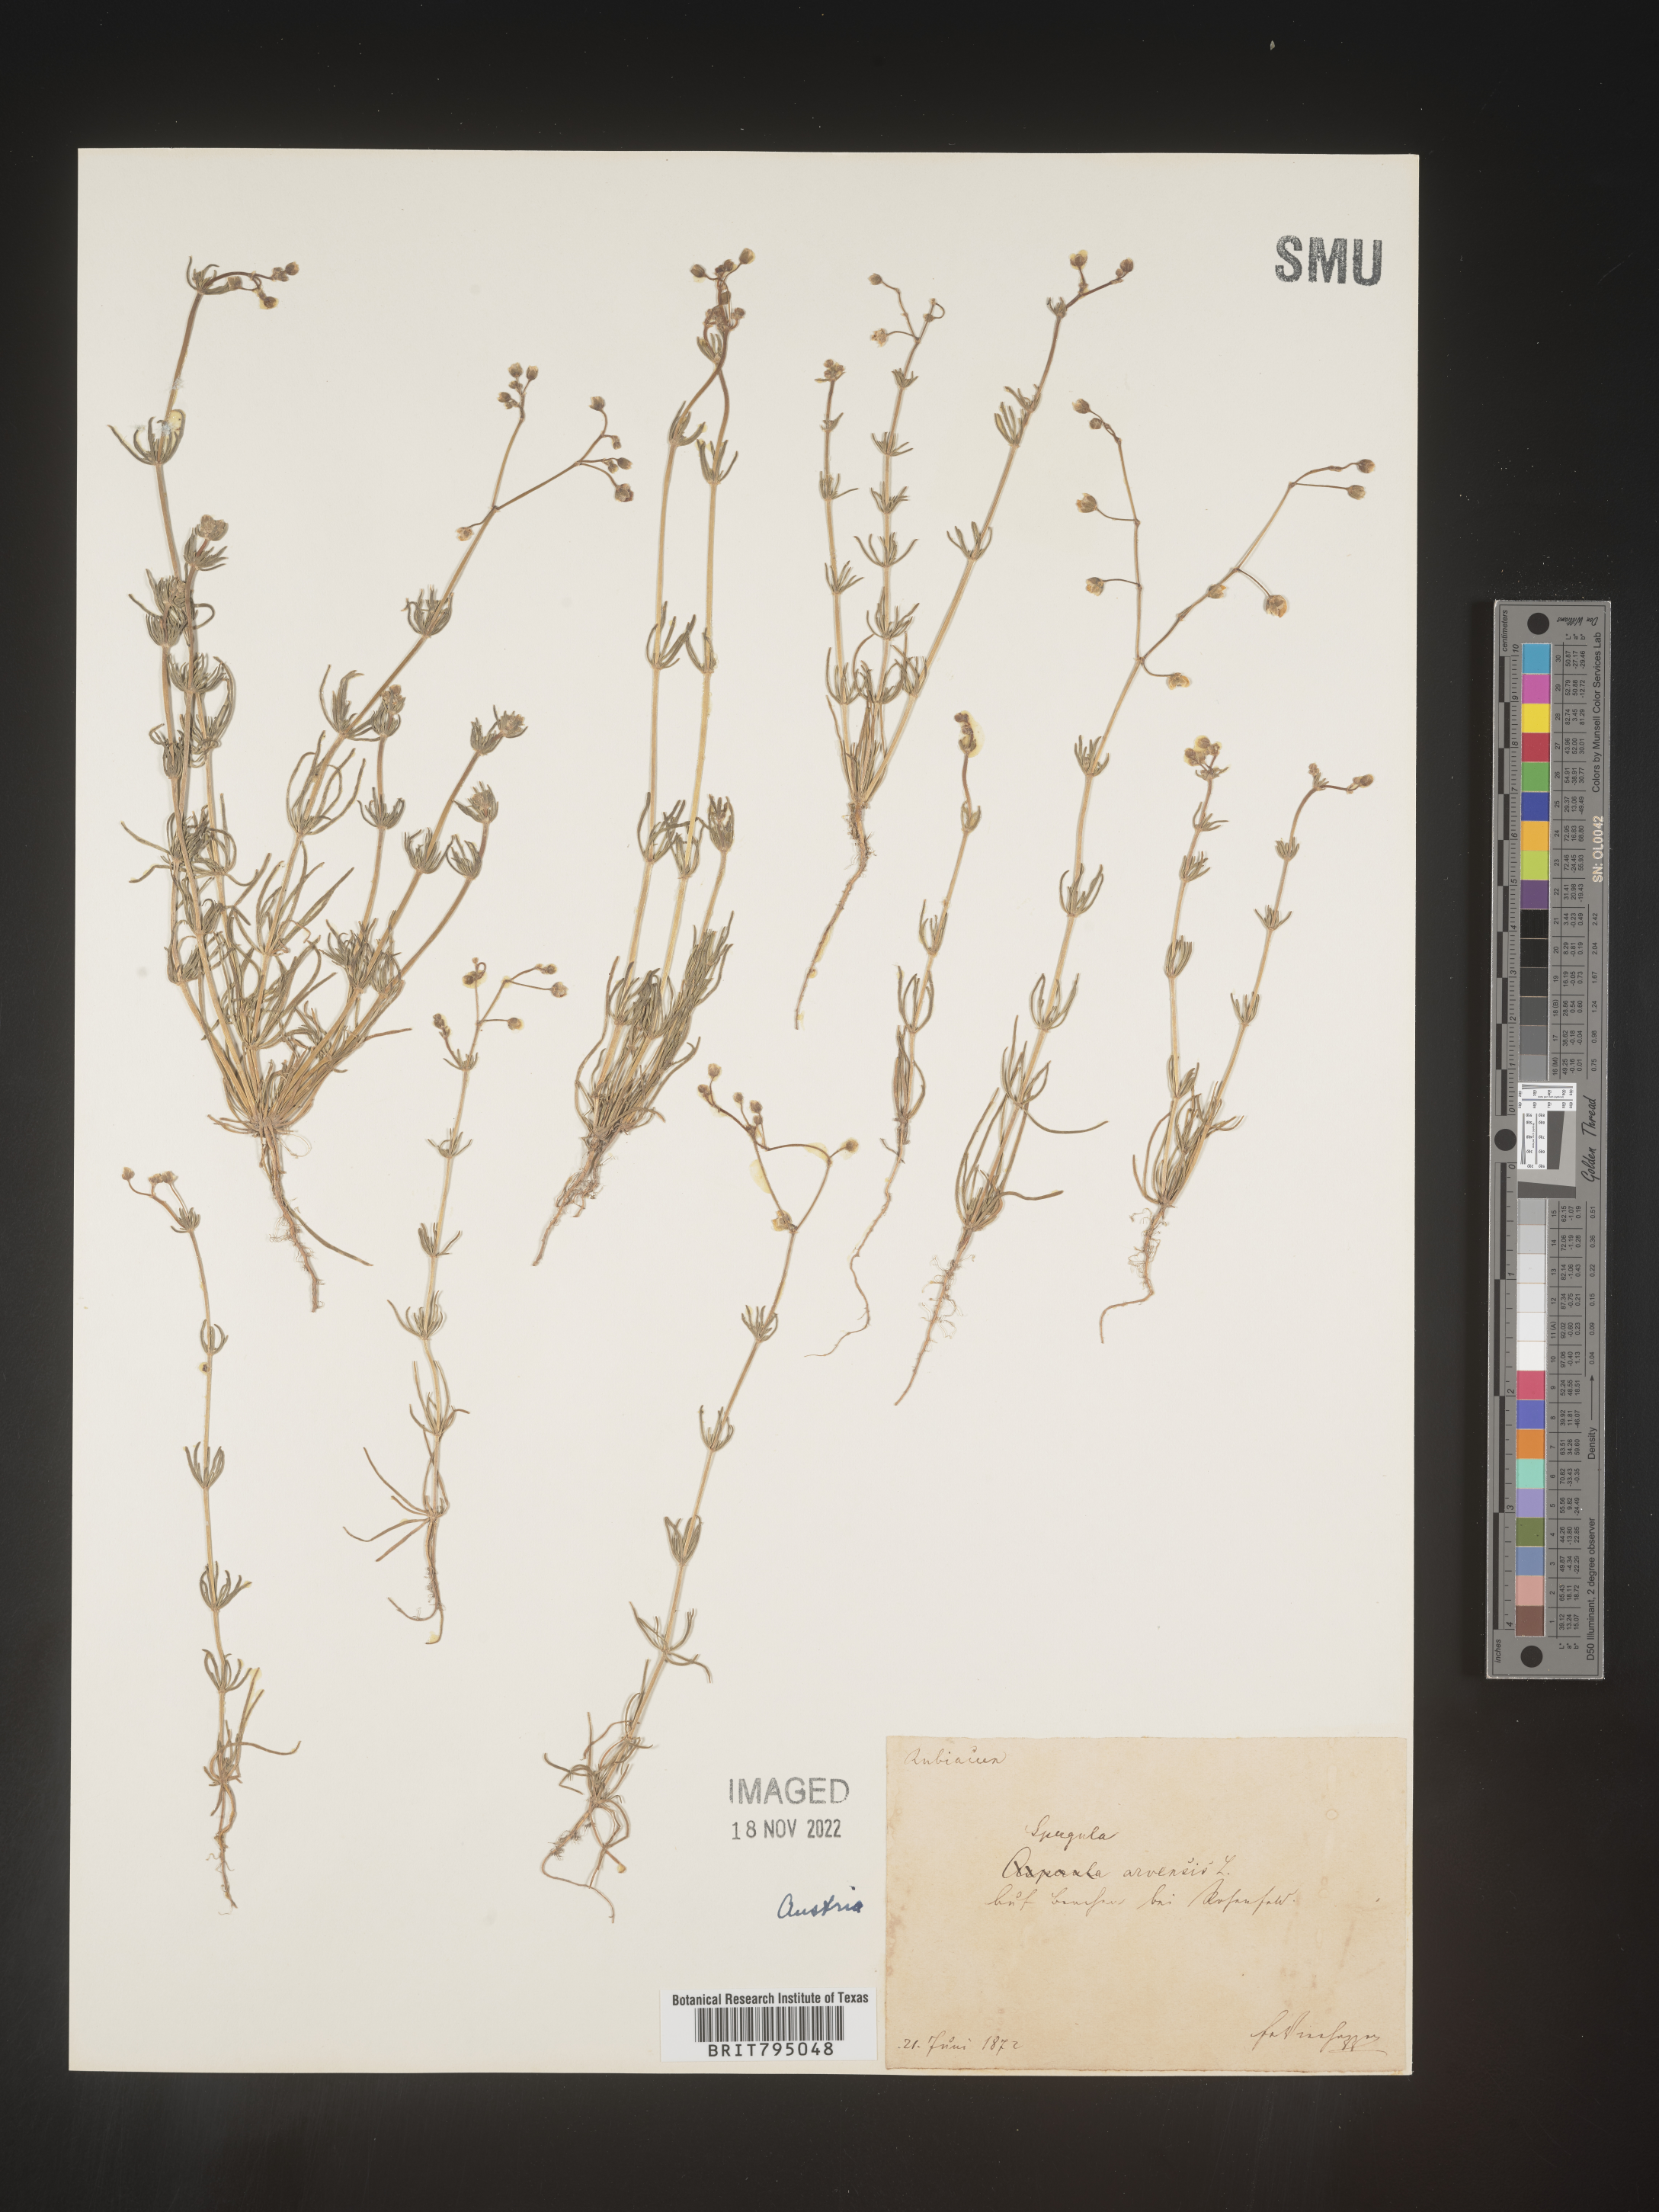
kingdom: Plantae
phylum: Tracheophyta
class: Magnoliopsida
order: Caryophyllales
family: Caryophyllaceae
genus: Spergula
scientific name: Spergula arvensis
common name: Corn spurrey
